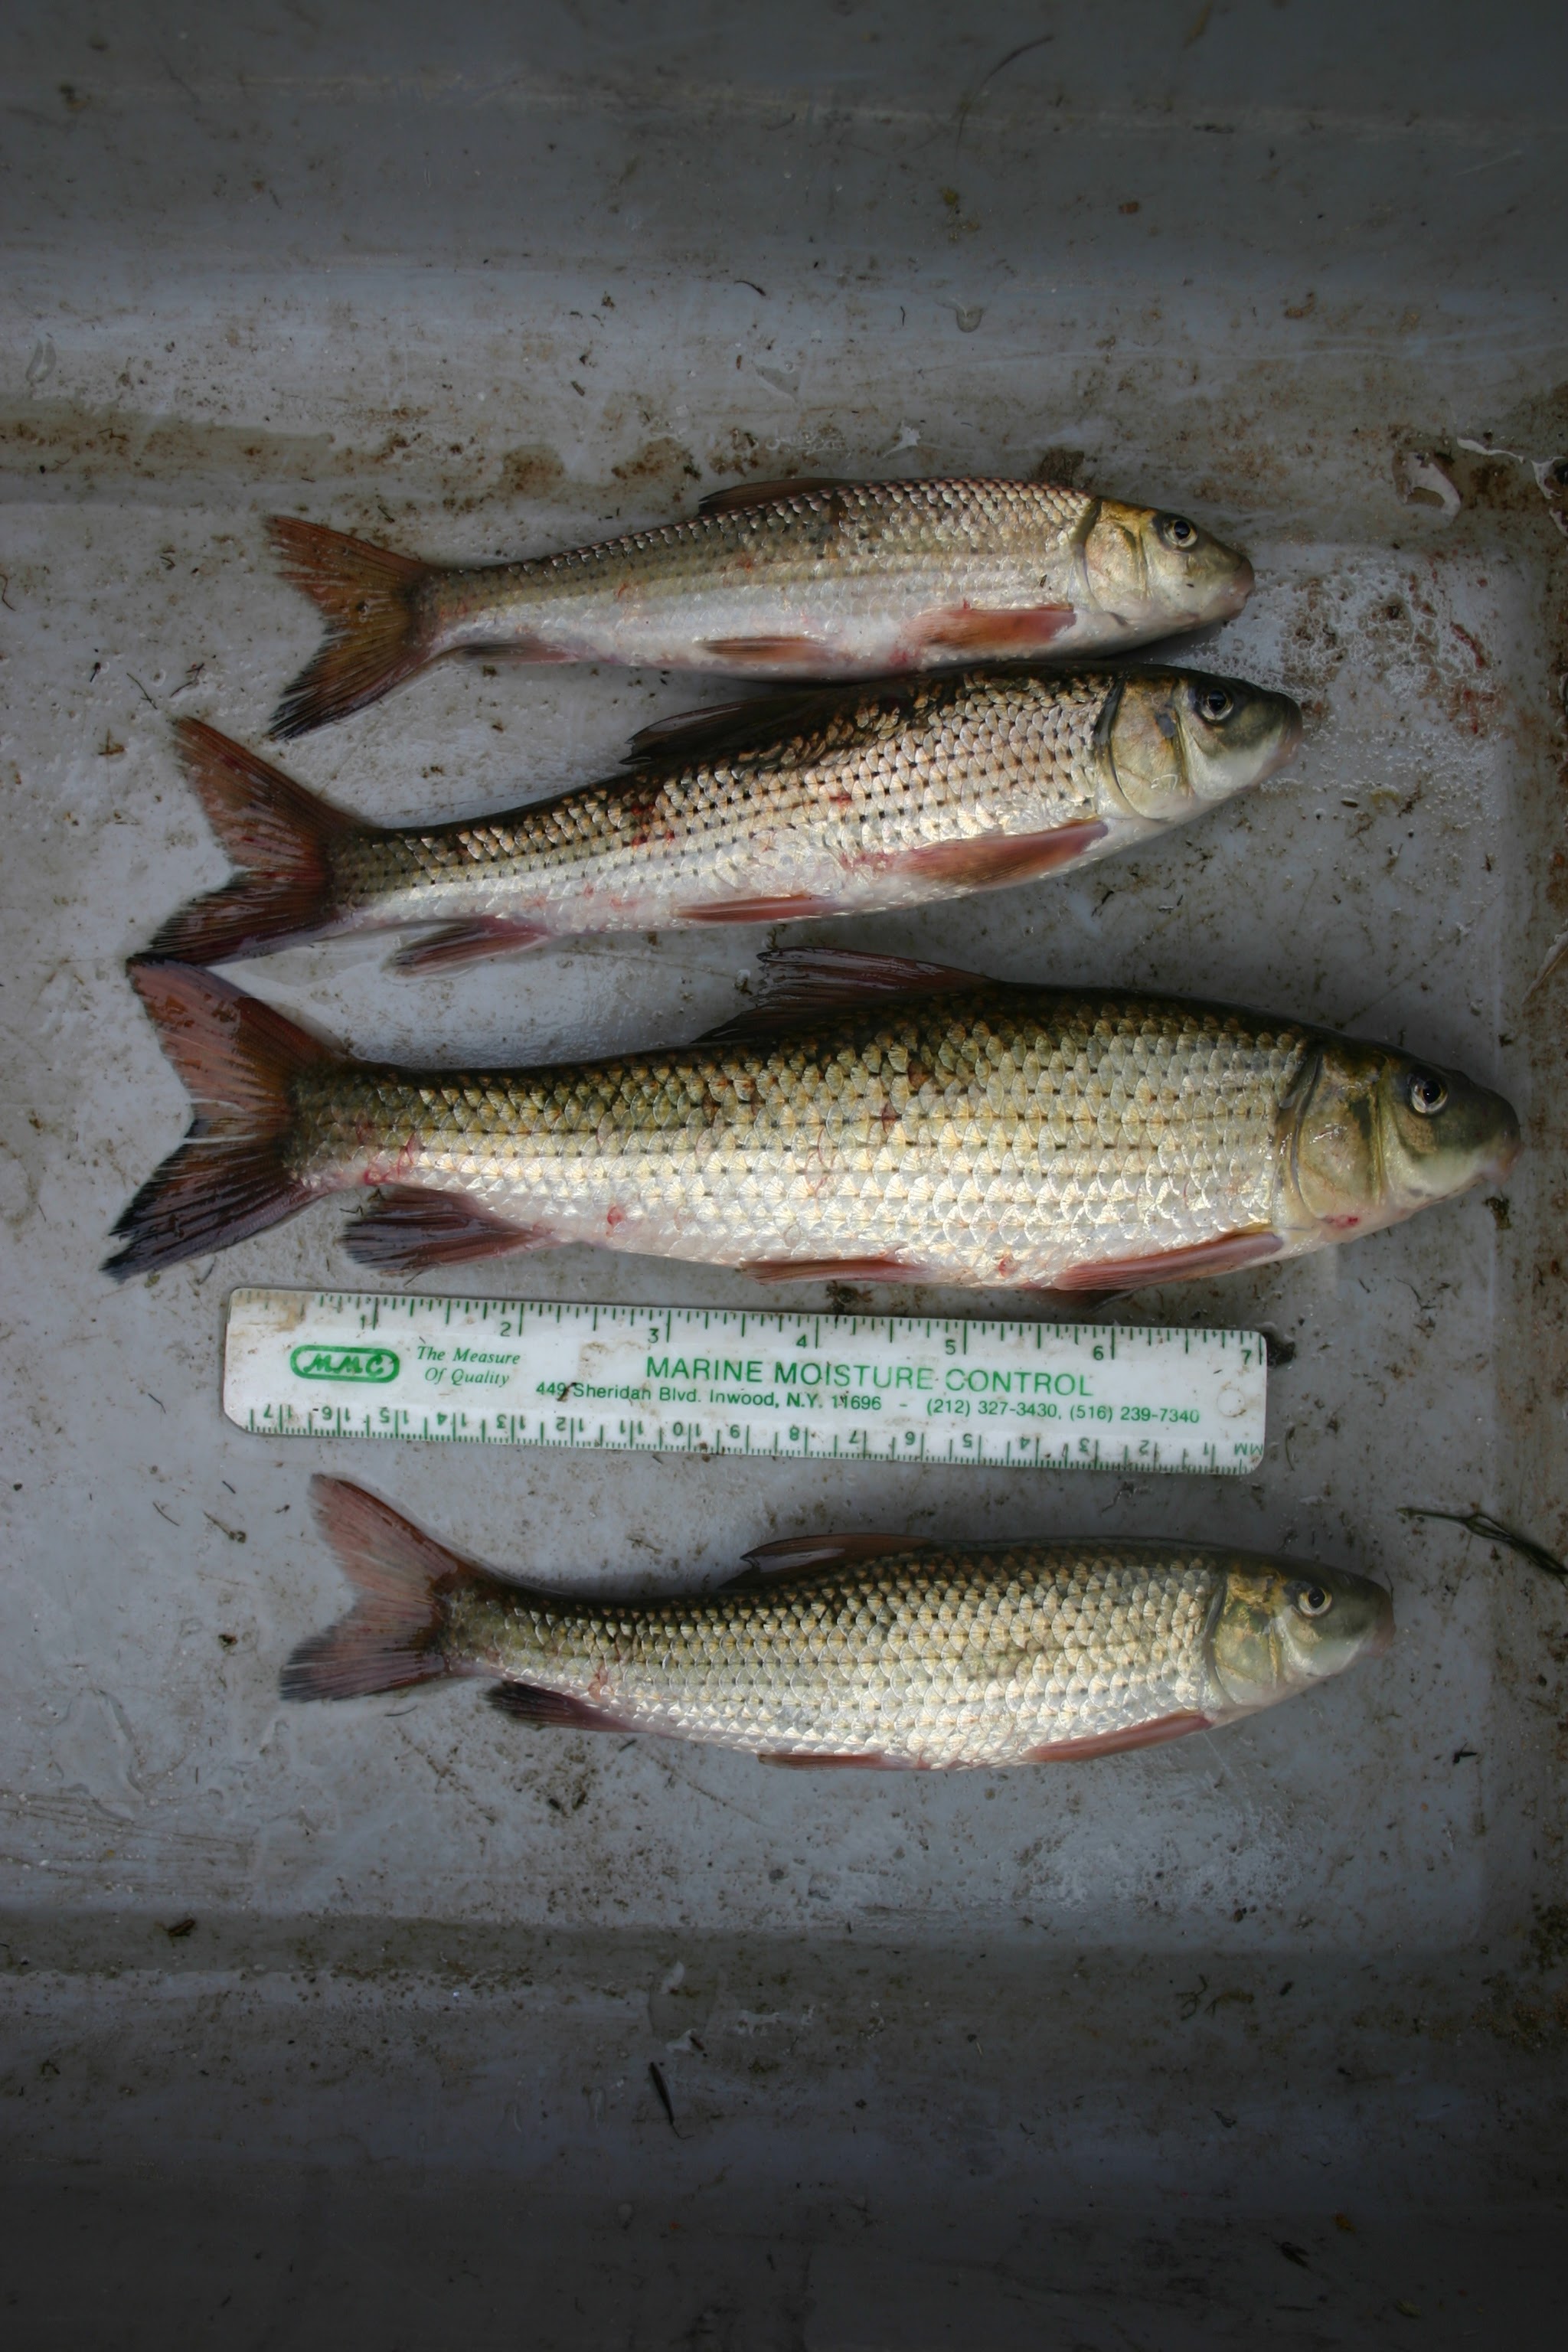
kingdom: Animalia
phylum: Chordata
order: Cypriniformes
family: Catostomidae
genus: Minytrema
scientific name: Minytrema melanops
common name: Spotted sucker
